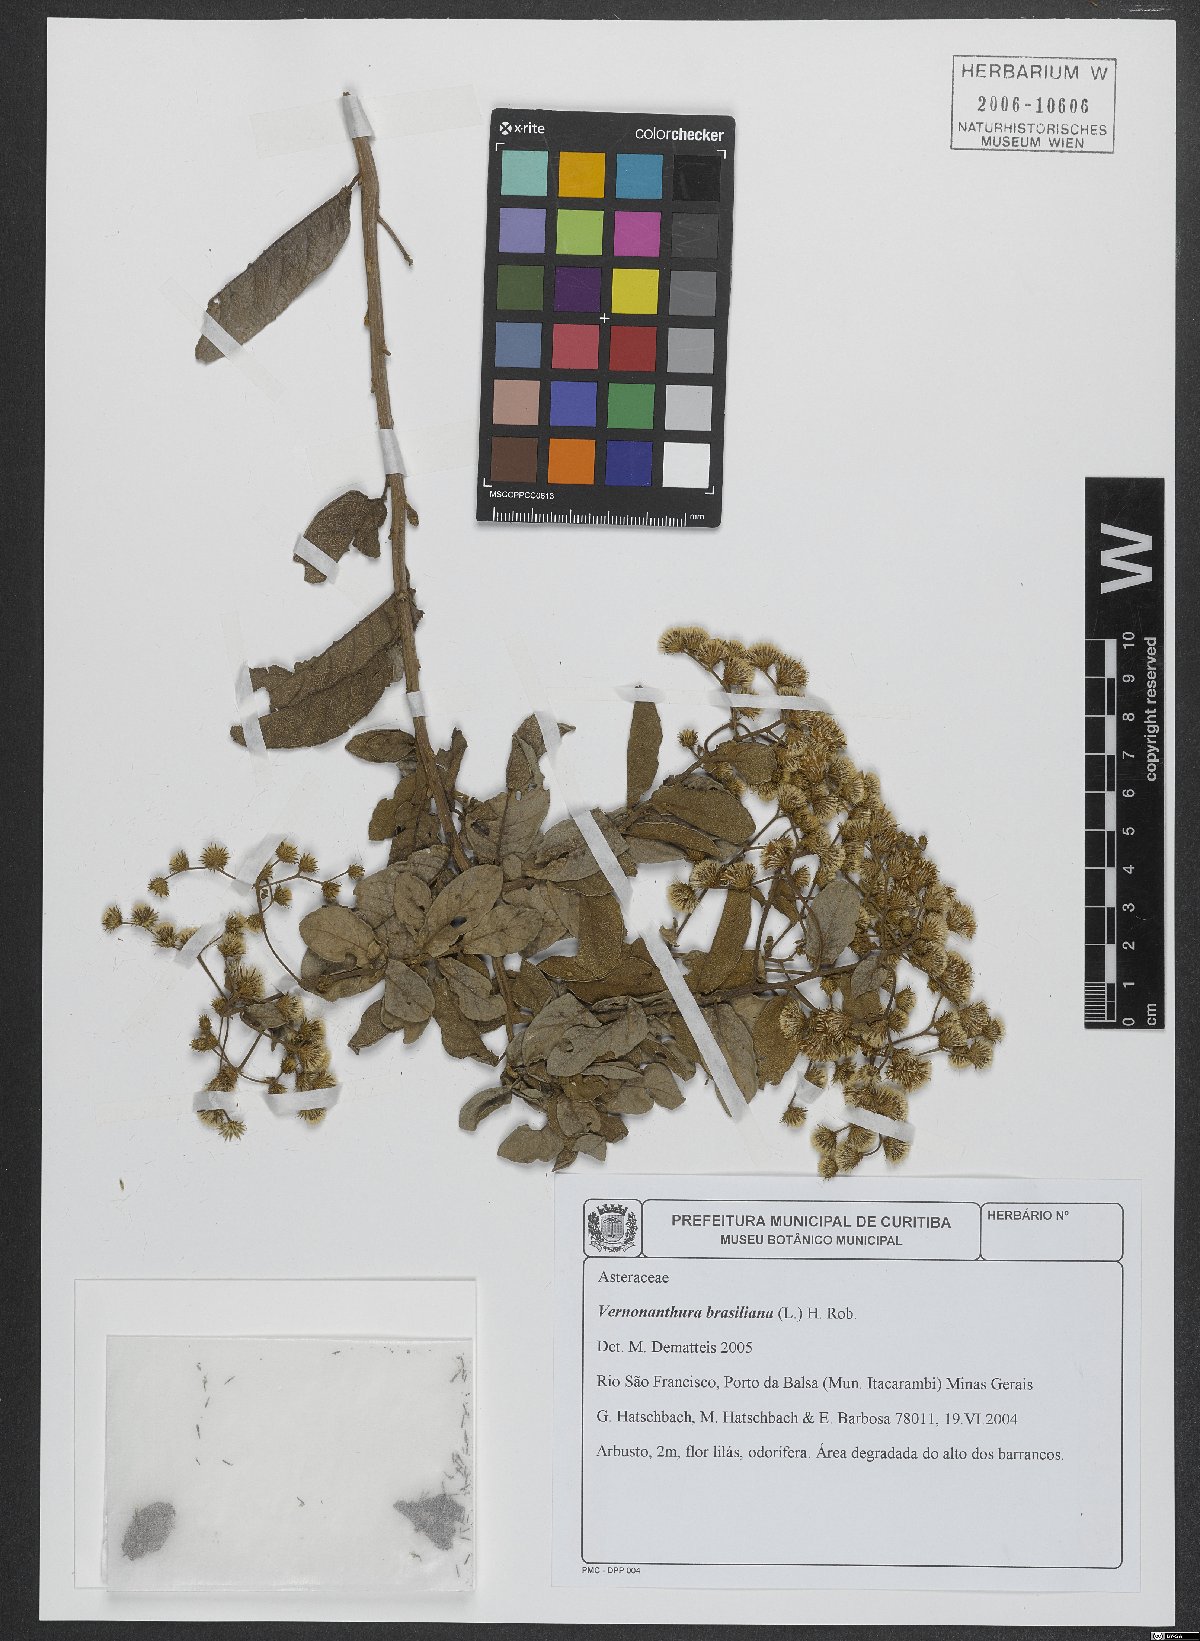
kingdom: Plantae
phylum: Tracheophyta
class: Magnoliopsida
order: Asterales
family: Asteraceae
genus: Vernonanthura
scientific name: Vernonanthura brasiliana
